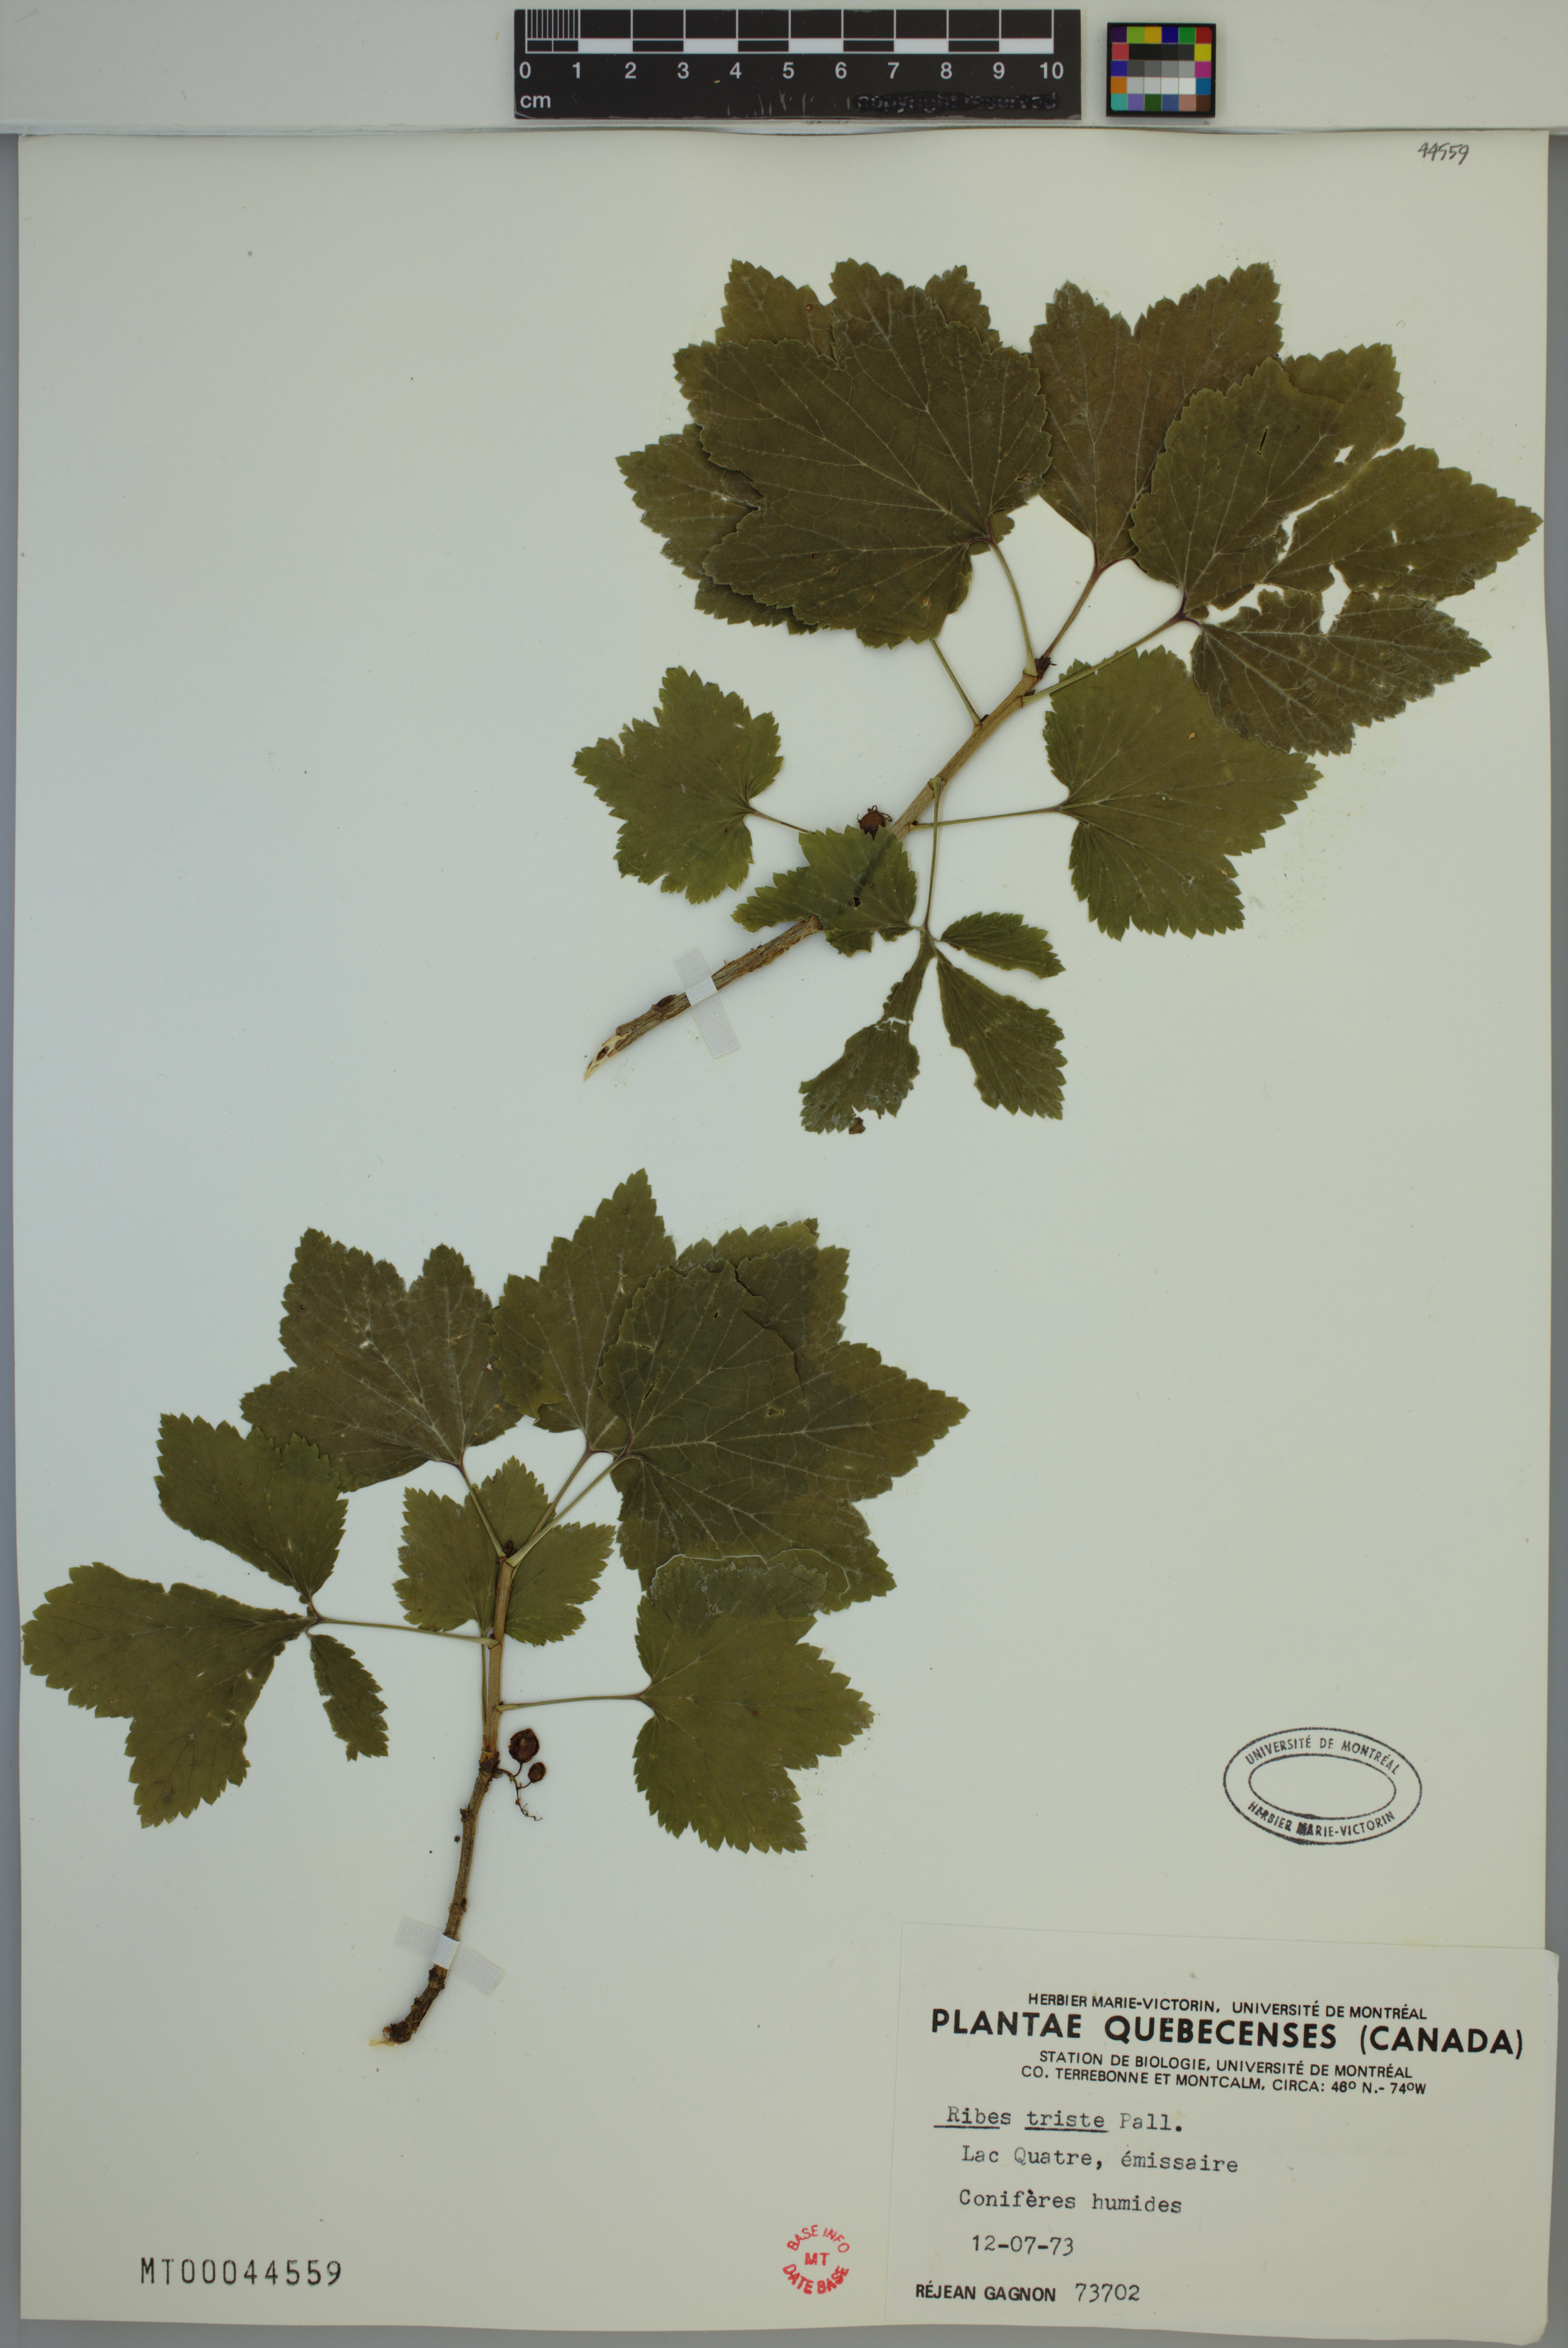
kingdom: Plantae
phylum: Tracheophyta
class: Magnoliopsida
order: Saxifragales
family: Grossulariaceae
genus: Ribes
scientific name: Ribes triste
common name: Swamp red currant
